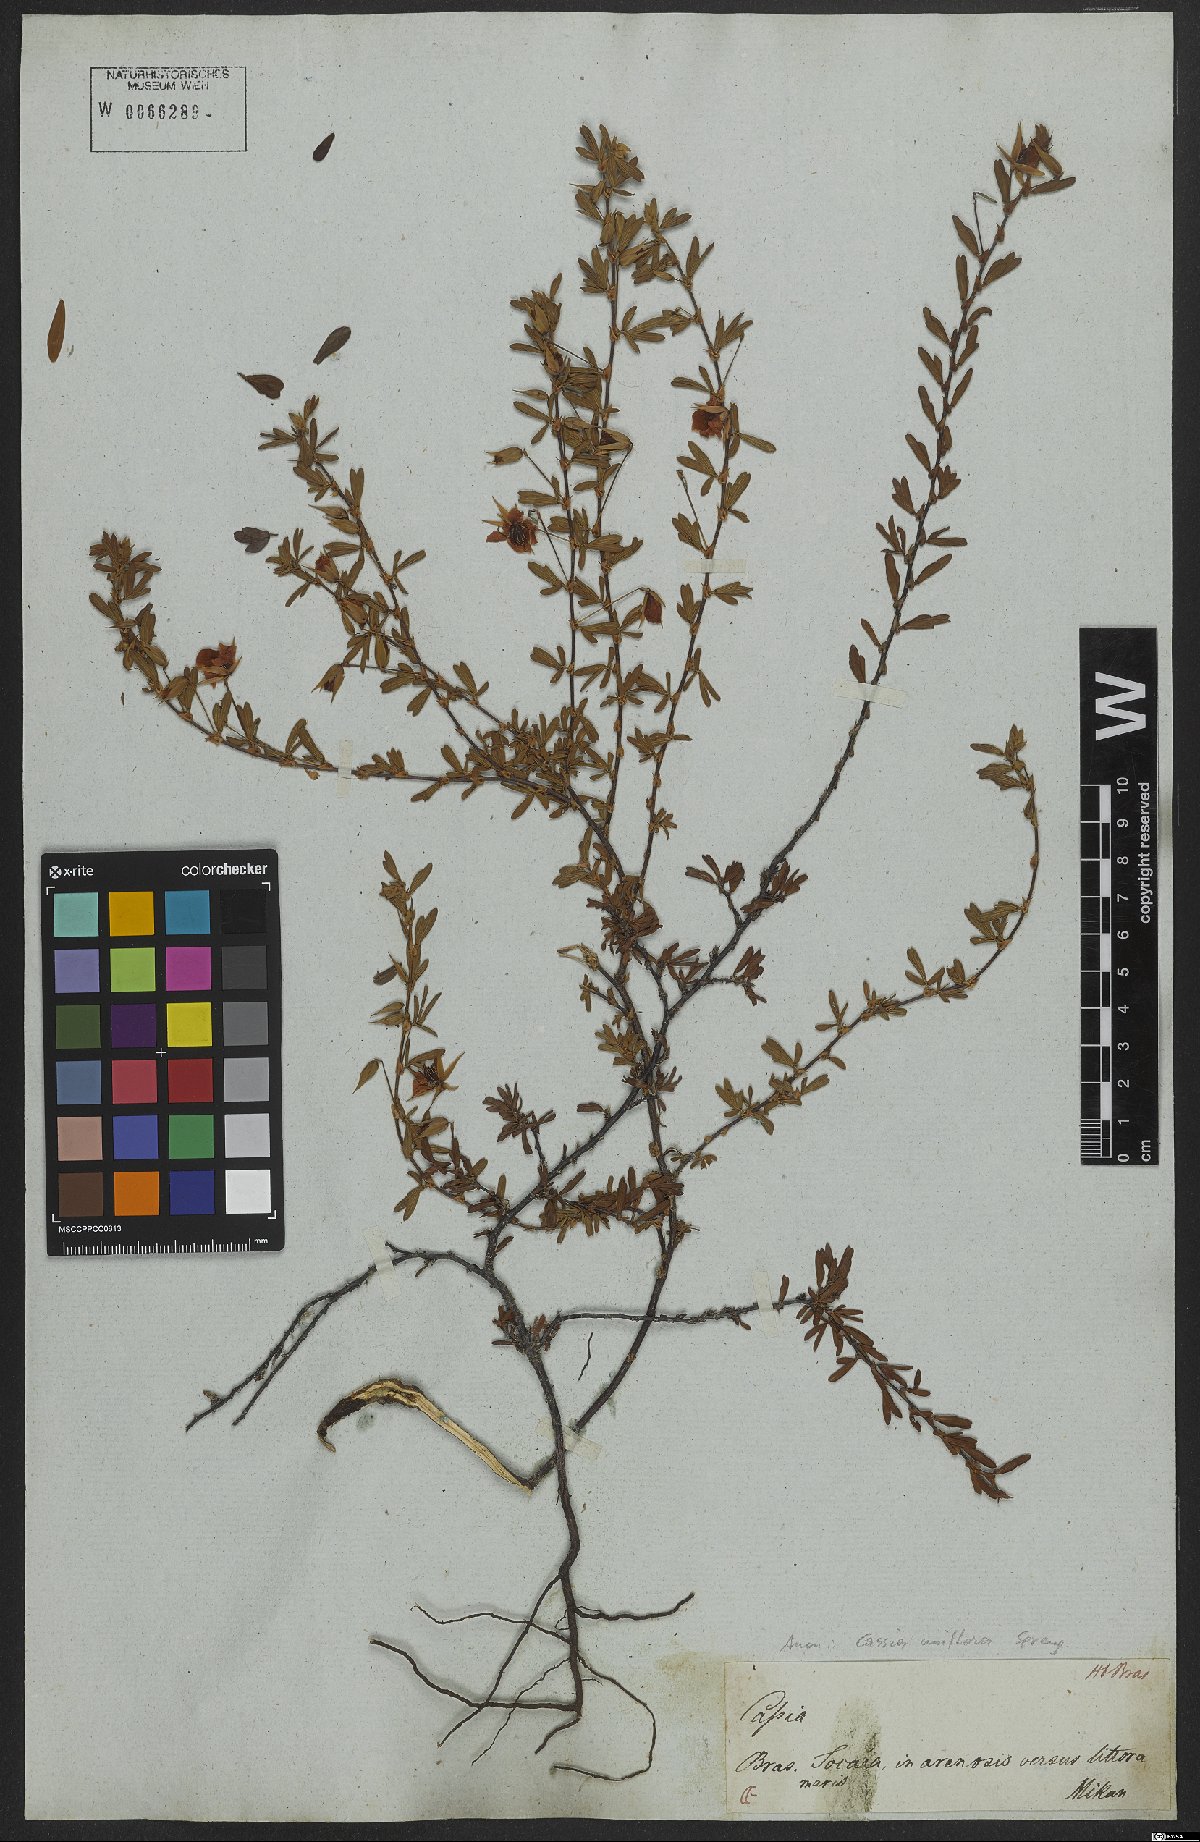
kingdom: Plantae
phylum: Tracheophyta
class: Magnoliopsida
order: Fabales
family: Fabaceae
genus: Senna
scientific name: Senna uniflora
